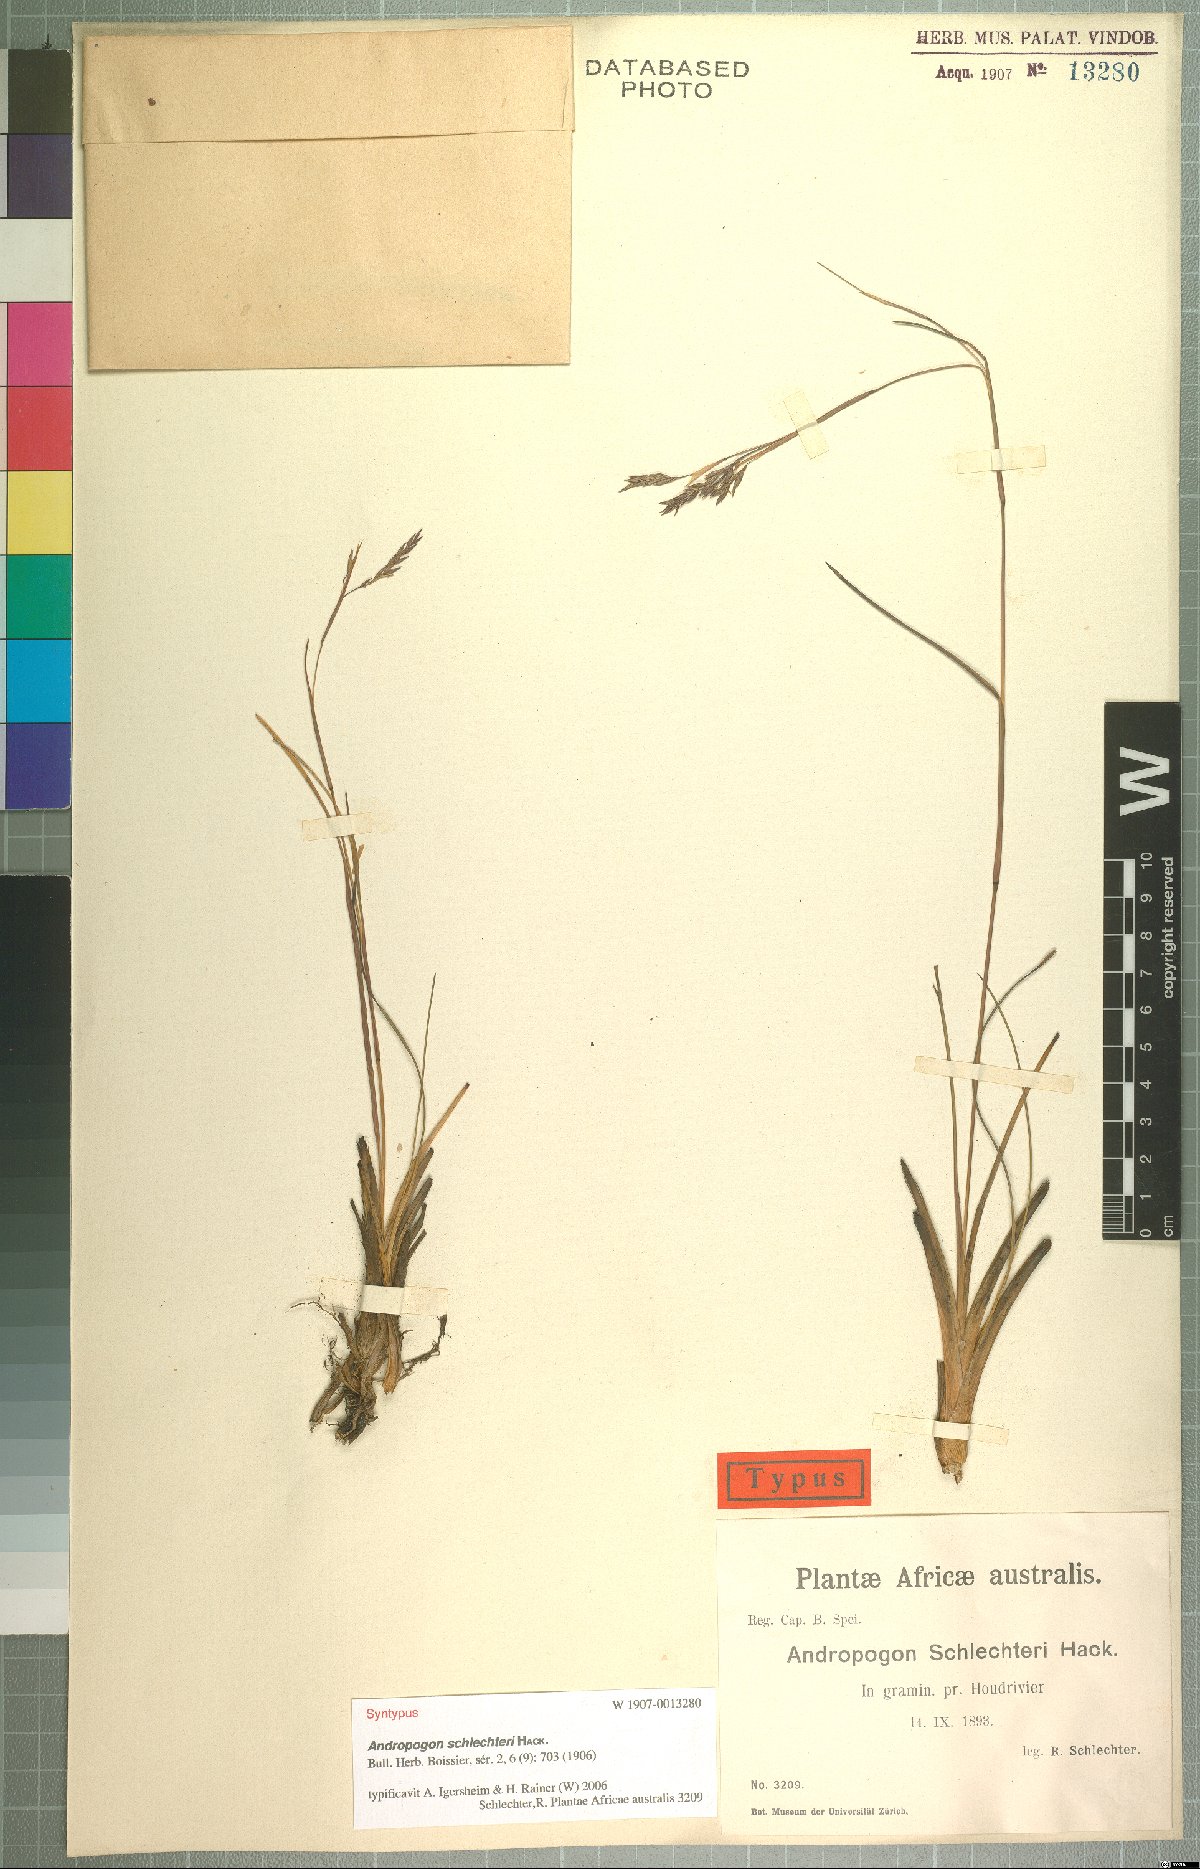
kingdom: Plantae
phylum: Tracheophyta
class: Liliopsida
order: Poales
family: Poaceae
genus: Andropogon
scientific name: Andropogon festuciformis
